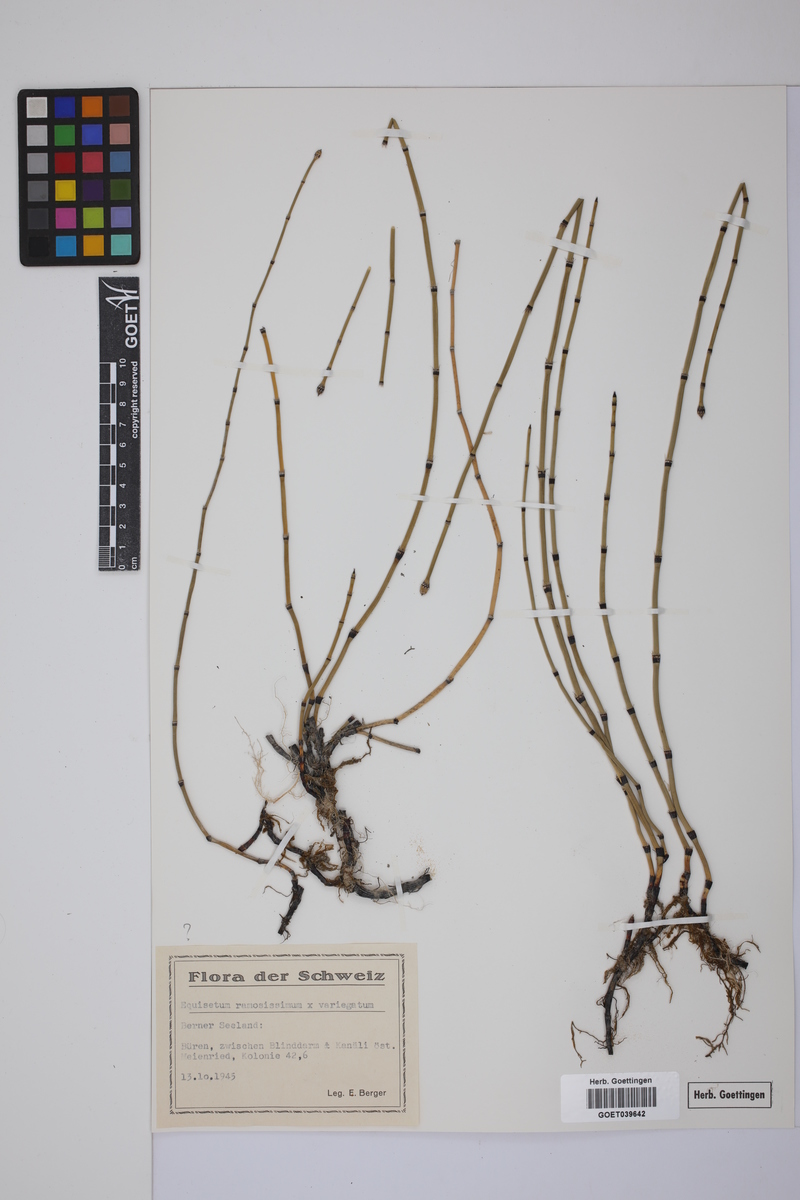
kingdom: Plantae
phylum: Tracheophyta
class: Polypodiopsida
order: Equisetales
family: Equisetaceae
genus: Equisetum
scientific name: Equisetum giganteum
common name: Giant horsetail
